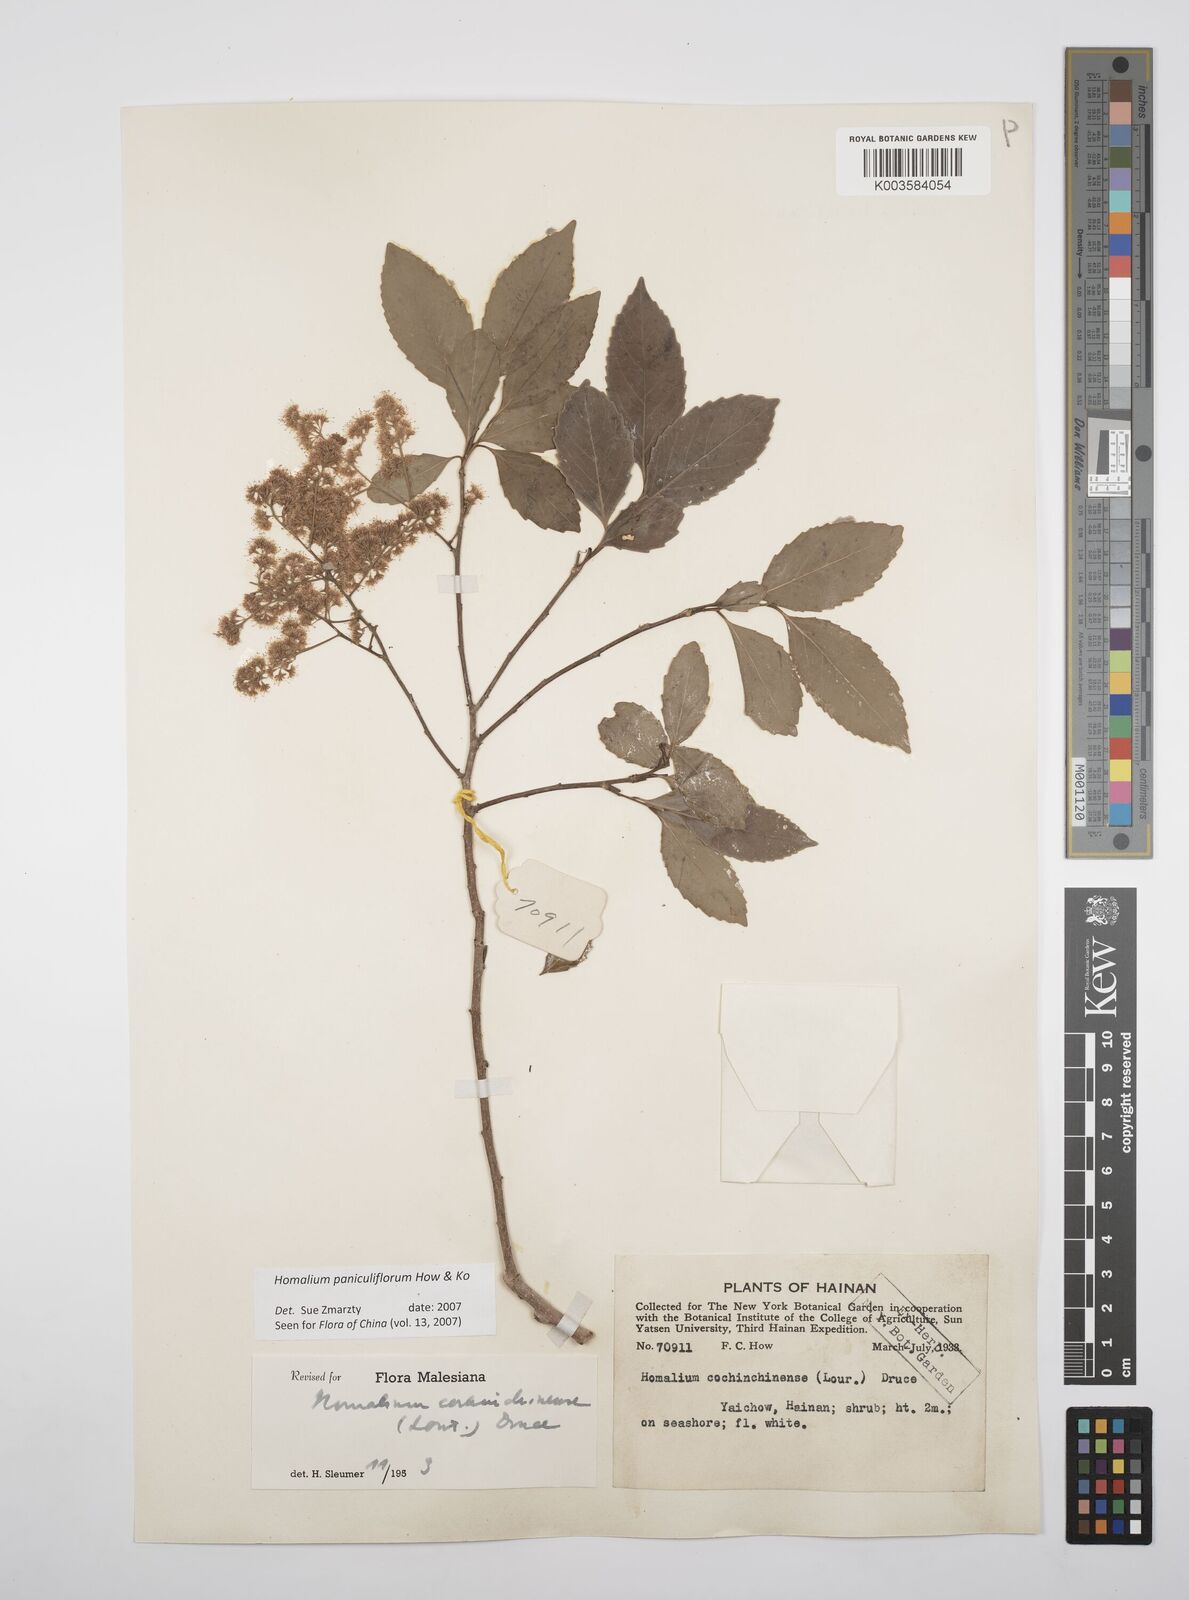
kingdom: Plantae
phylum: Tracheophyta
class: Magnoliopsida
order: Malpighiales
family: Salicaceae
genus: Homalium
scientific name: Homalium paniculiflorum
